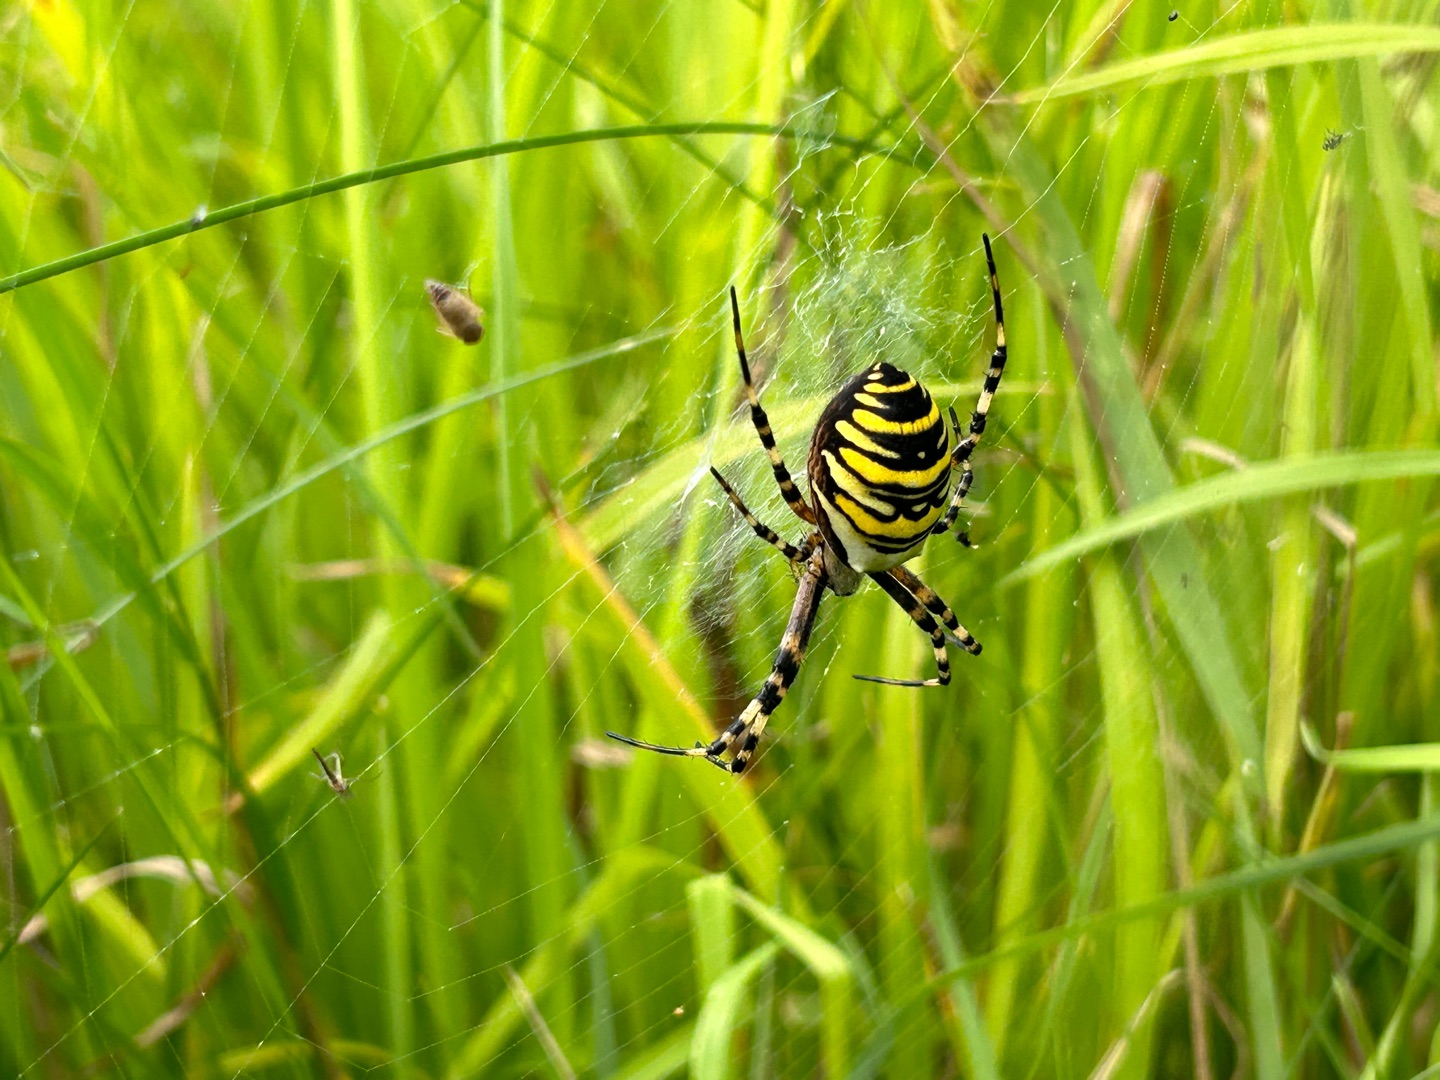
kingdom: Animalia
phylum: Arthropoda
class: Arachnida
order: Araneae
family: Araneidae
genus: Argiope
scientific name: Argiope bruennichi
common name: Hvepseedderkop
